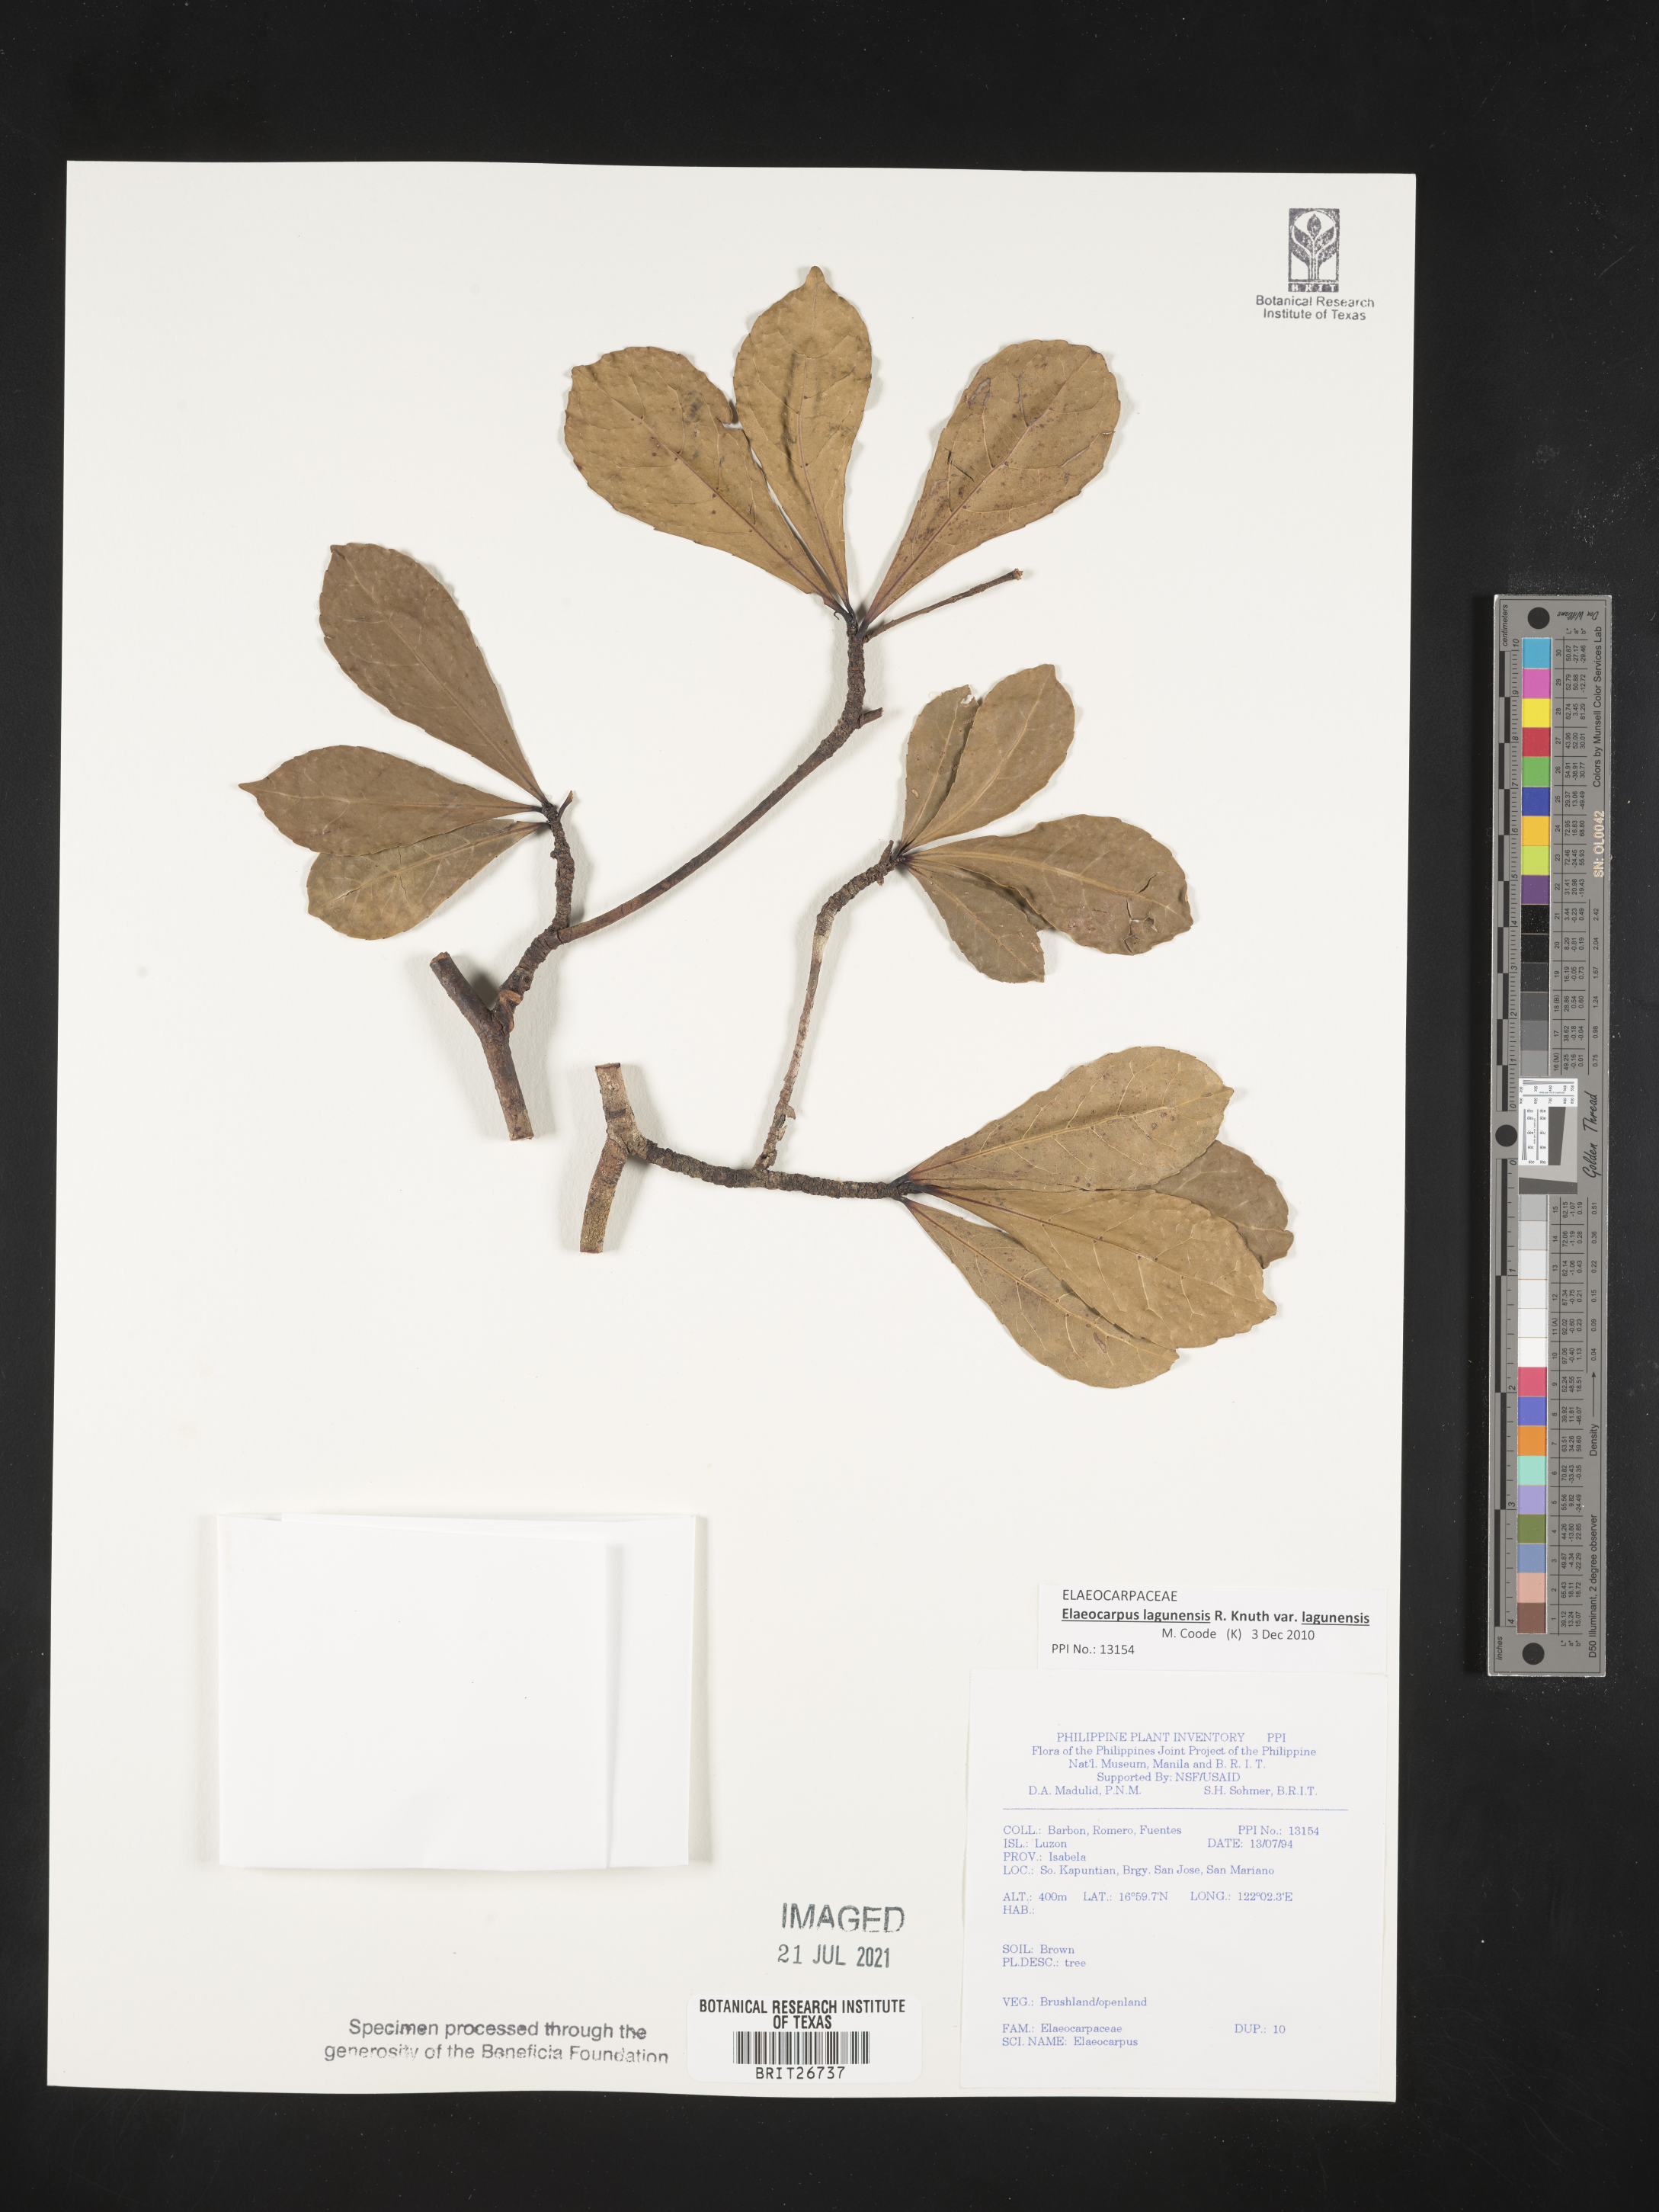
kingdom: Plantae
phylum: Tracheophyta
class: Magnoliopsida
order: Oxalidales
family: Elaeocarpaceae
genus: Elaeocarpus
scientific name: Elaeocarpus
